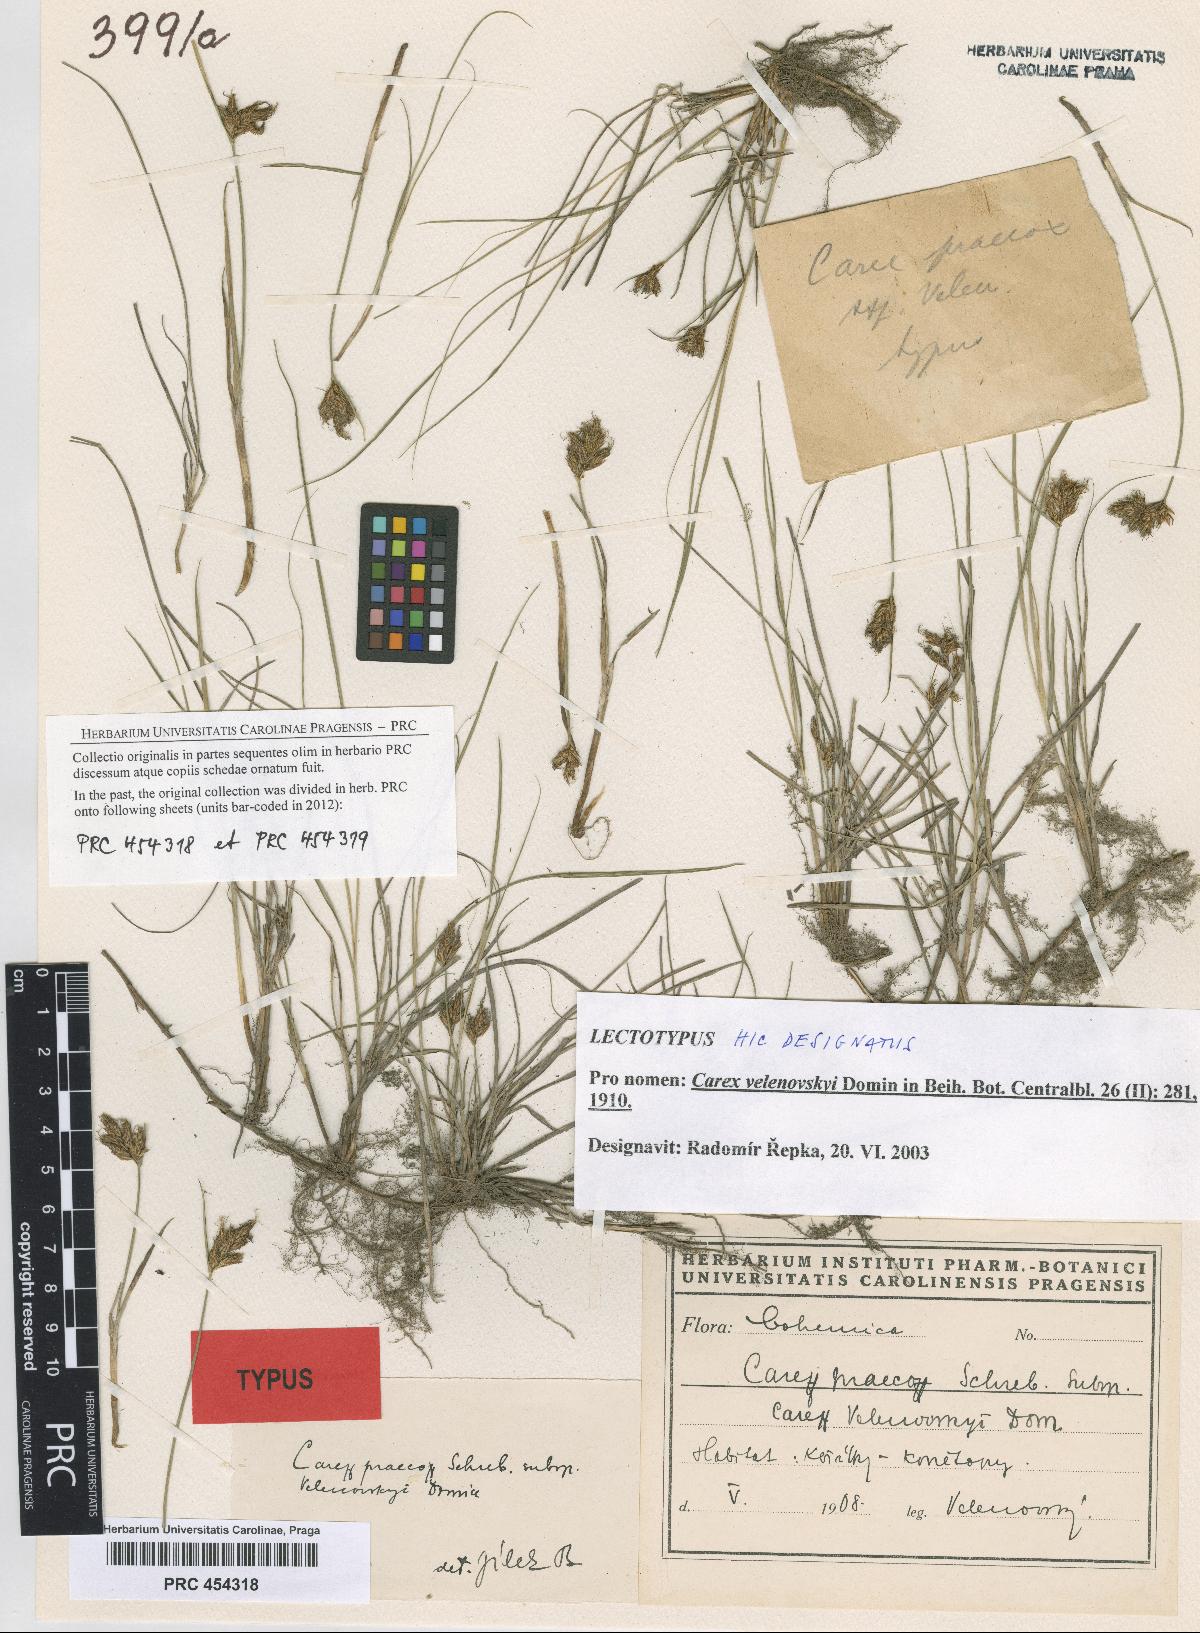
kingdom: Plantae
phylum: Tracheophyta
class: Liliopsida
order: Poales
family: Cyperaceae
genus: Carex
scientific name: Carex praecox
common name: Early sedge
